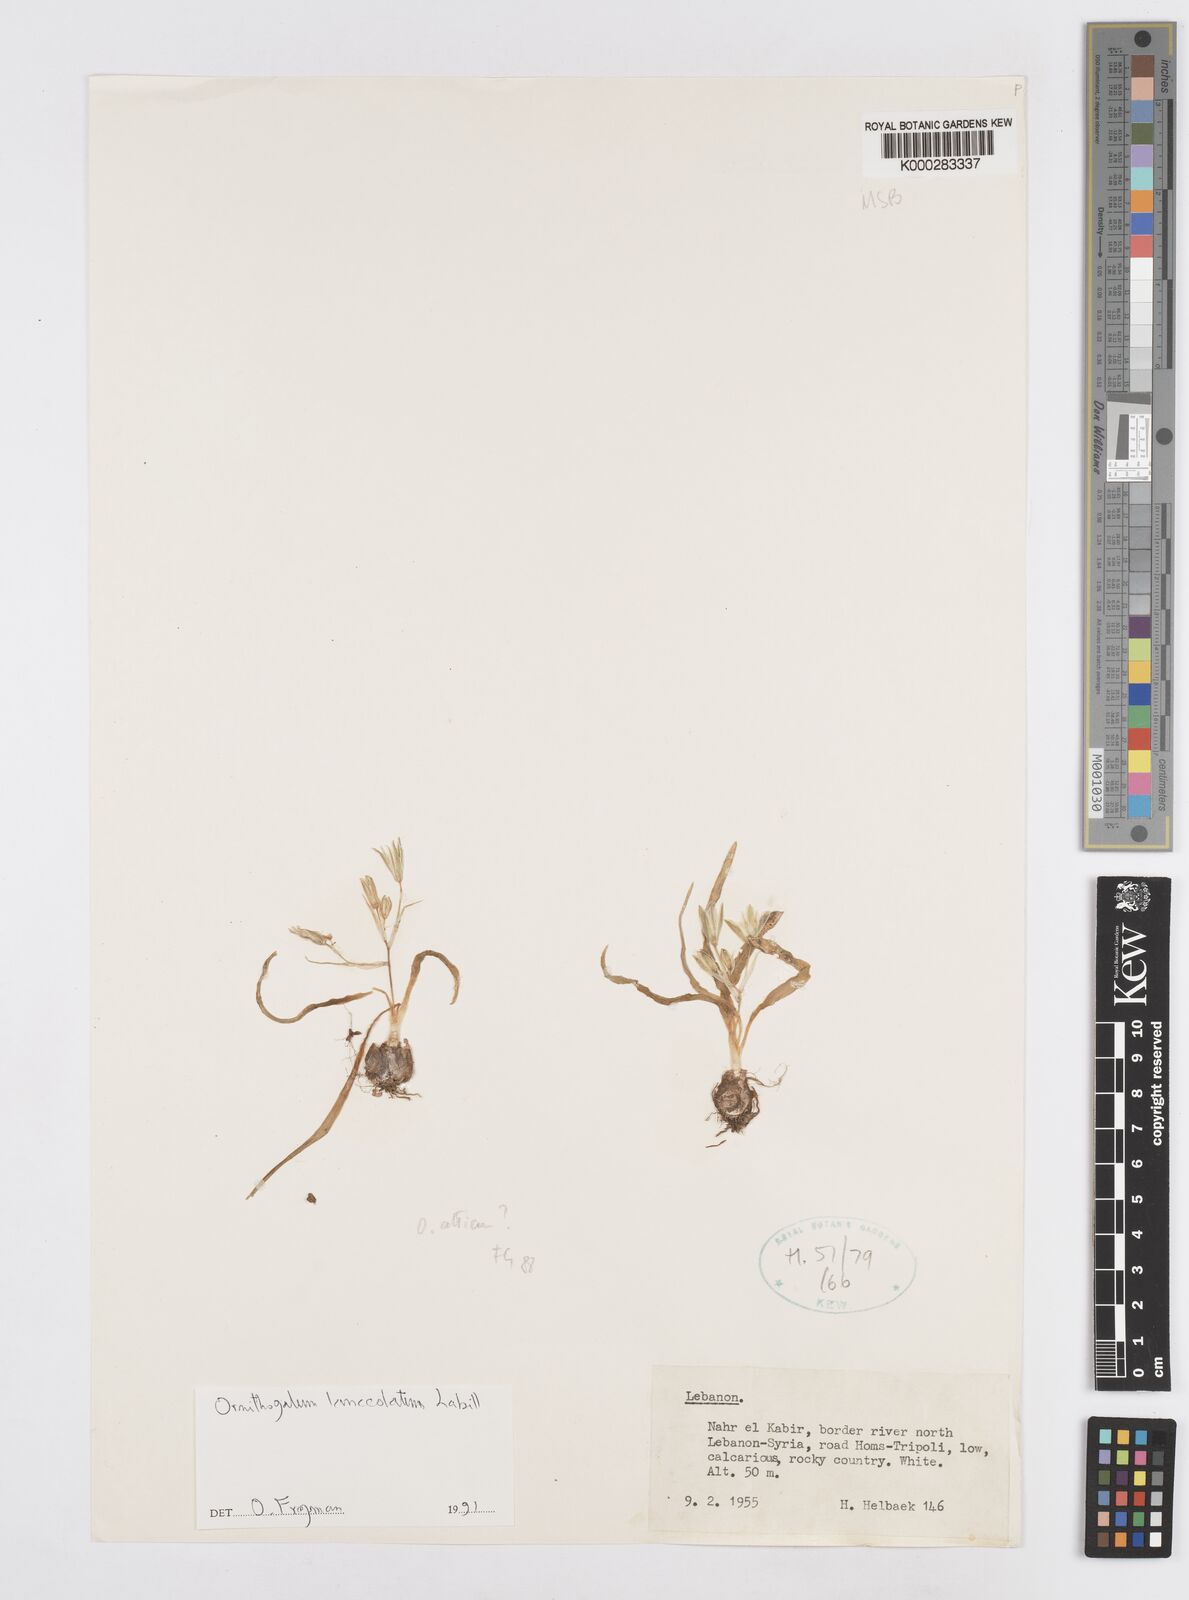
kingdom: Plantae
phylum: Tracheophyta
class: Liliopsida
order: Asparagales
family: Asparagaceae
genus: Ornithogalum
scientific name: Ornithogalum lanceolatum
